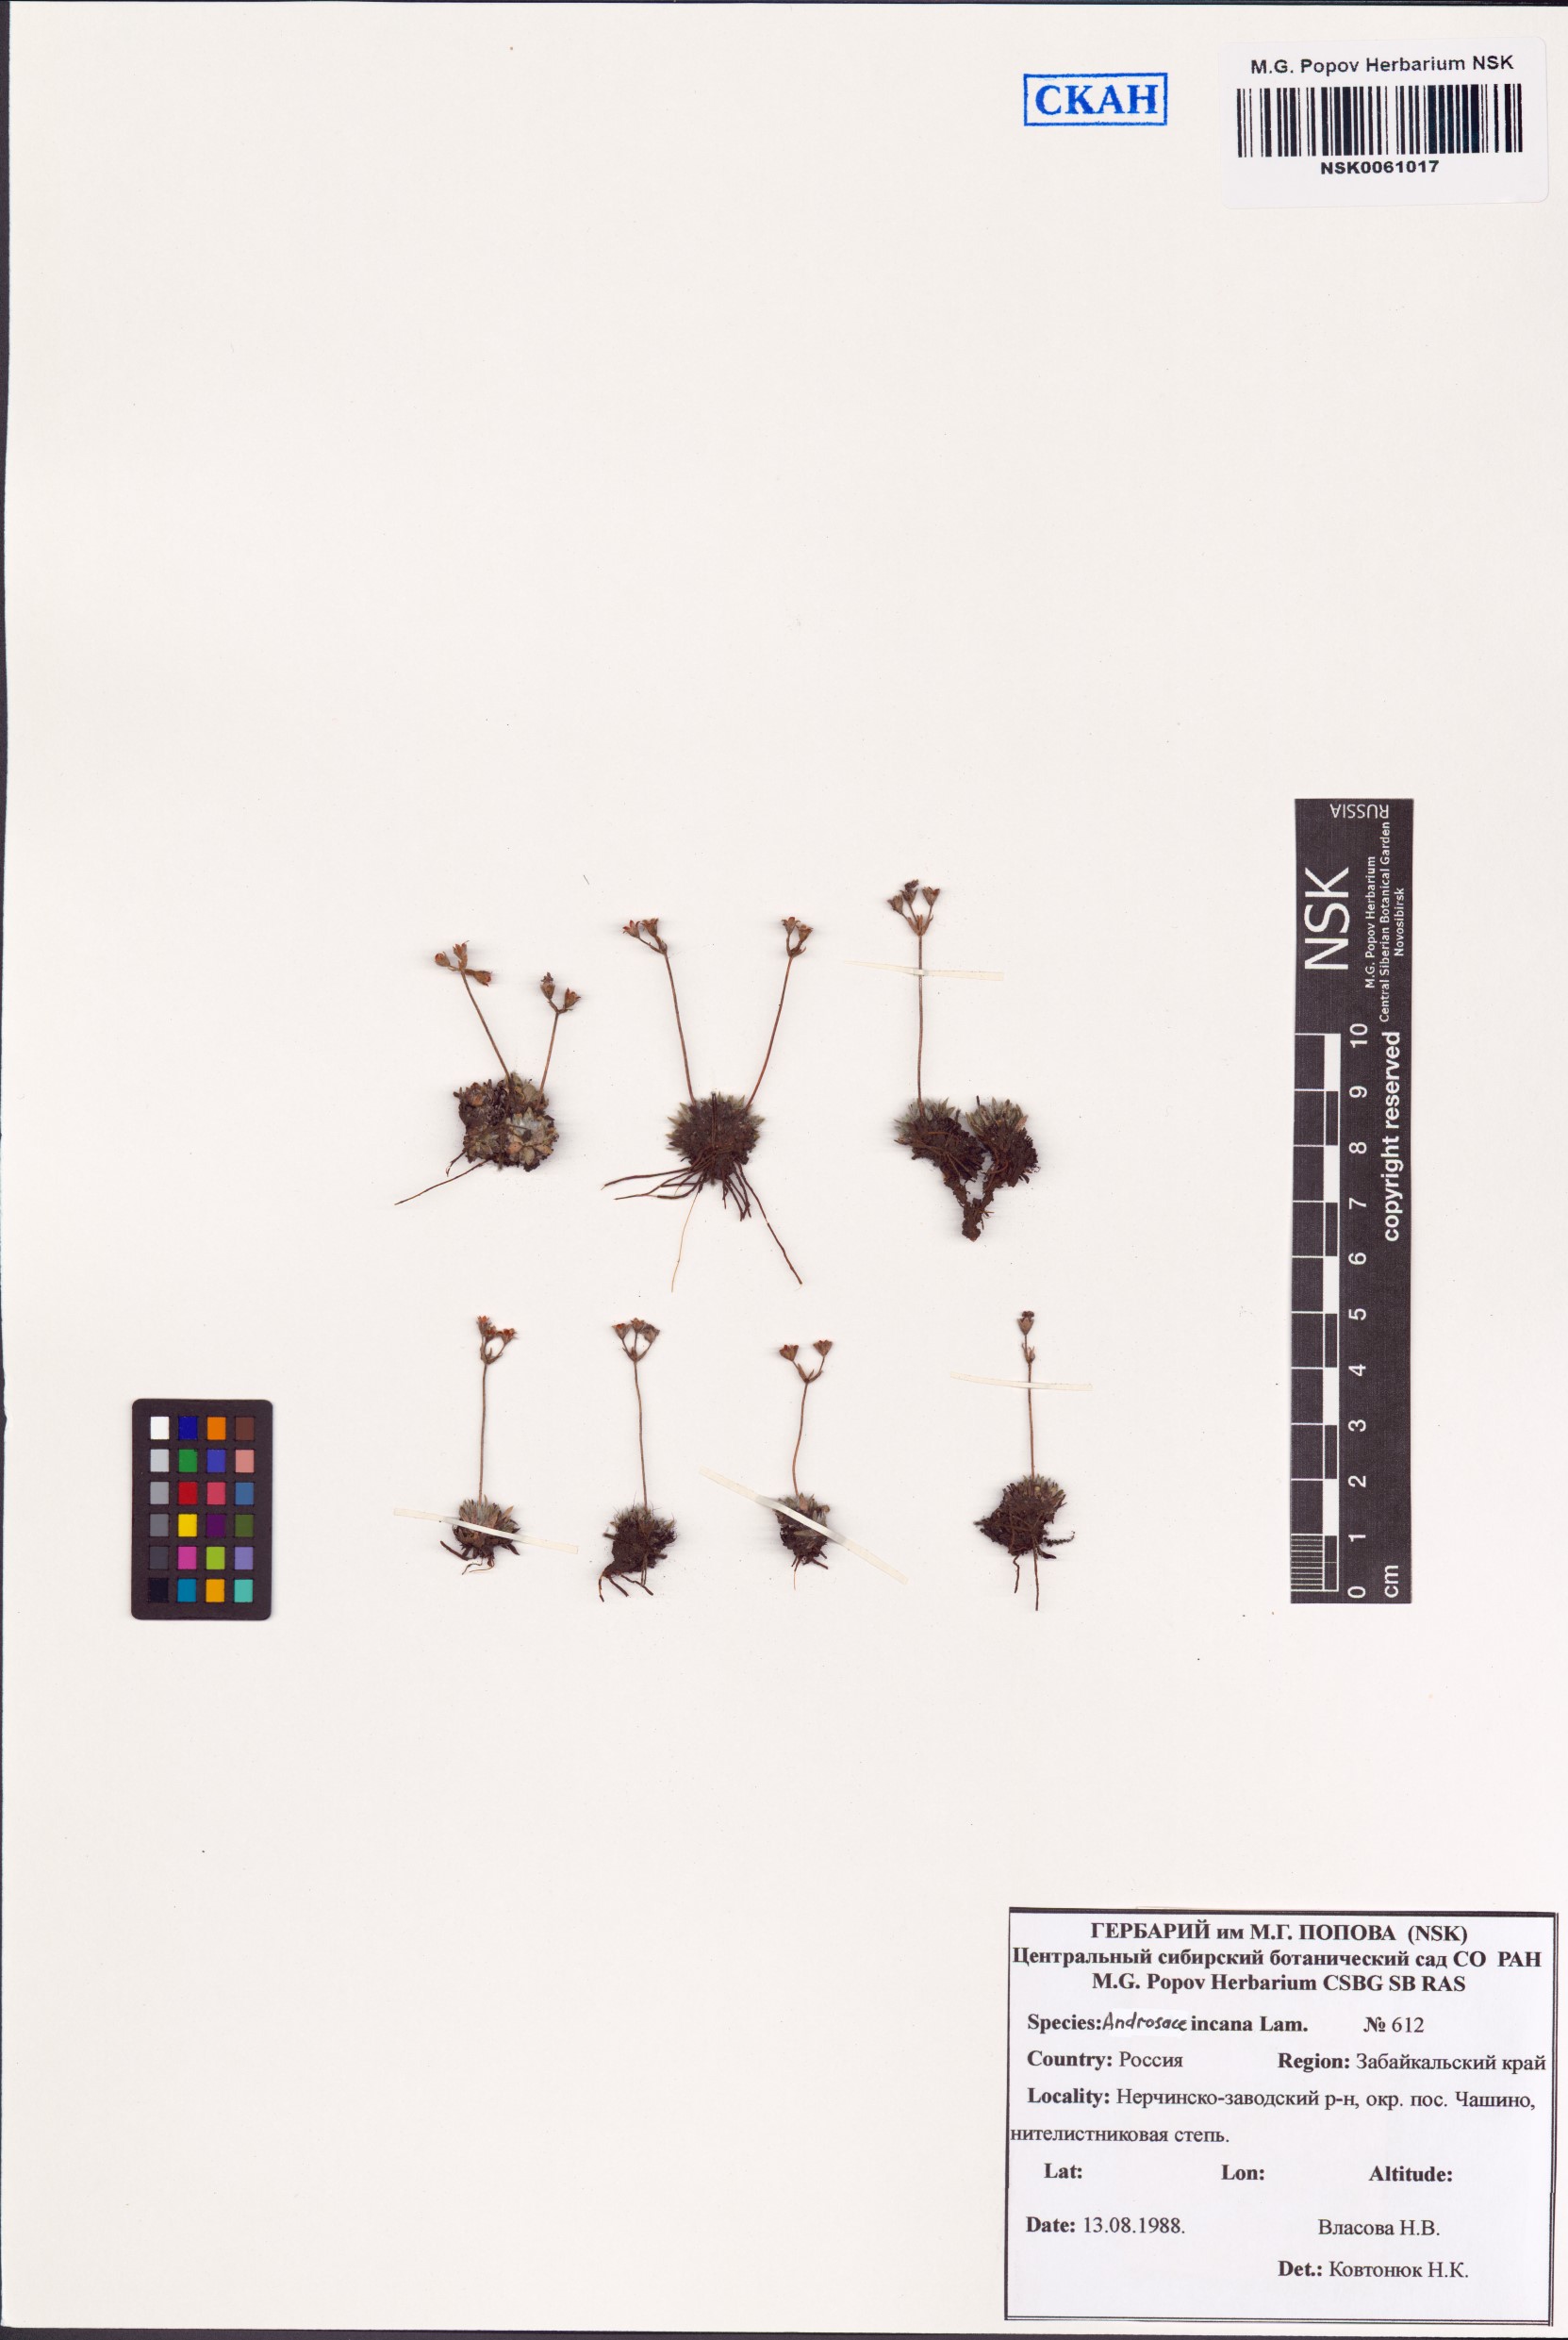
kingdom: Plantae
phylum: Tracheophyta
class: Magnoliopsida
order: Ericales
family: Primulaceae
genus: Androsace
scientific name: Androsace incana
